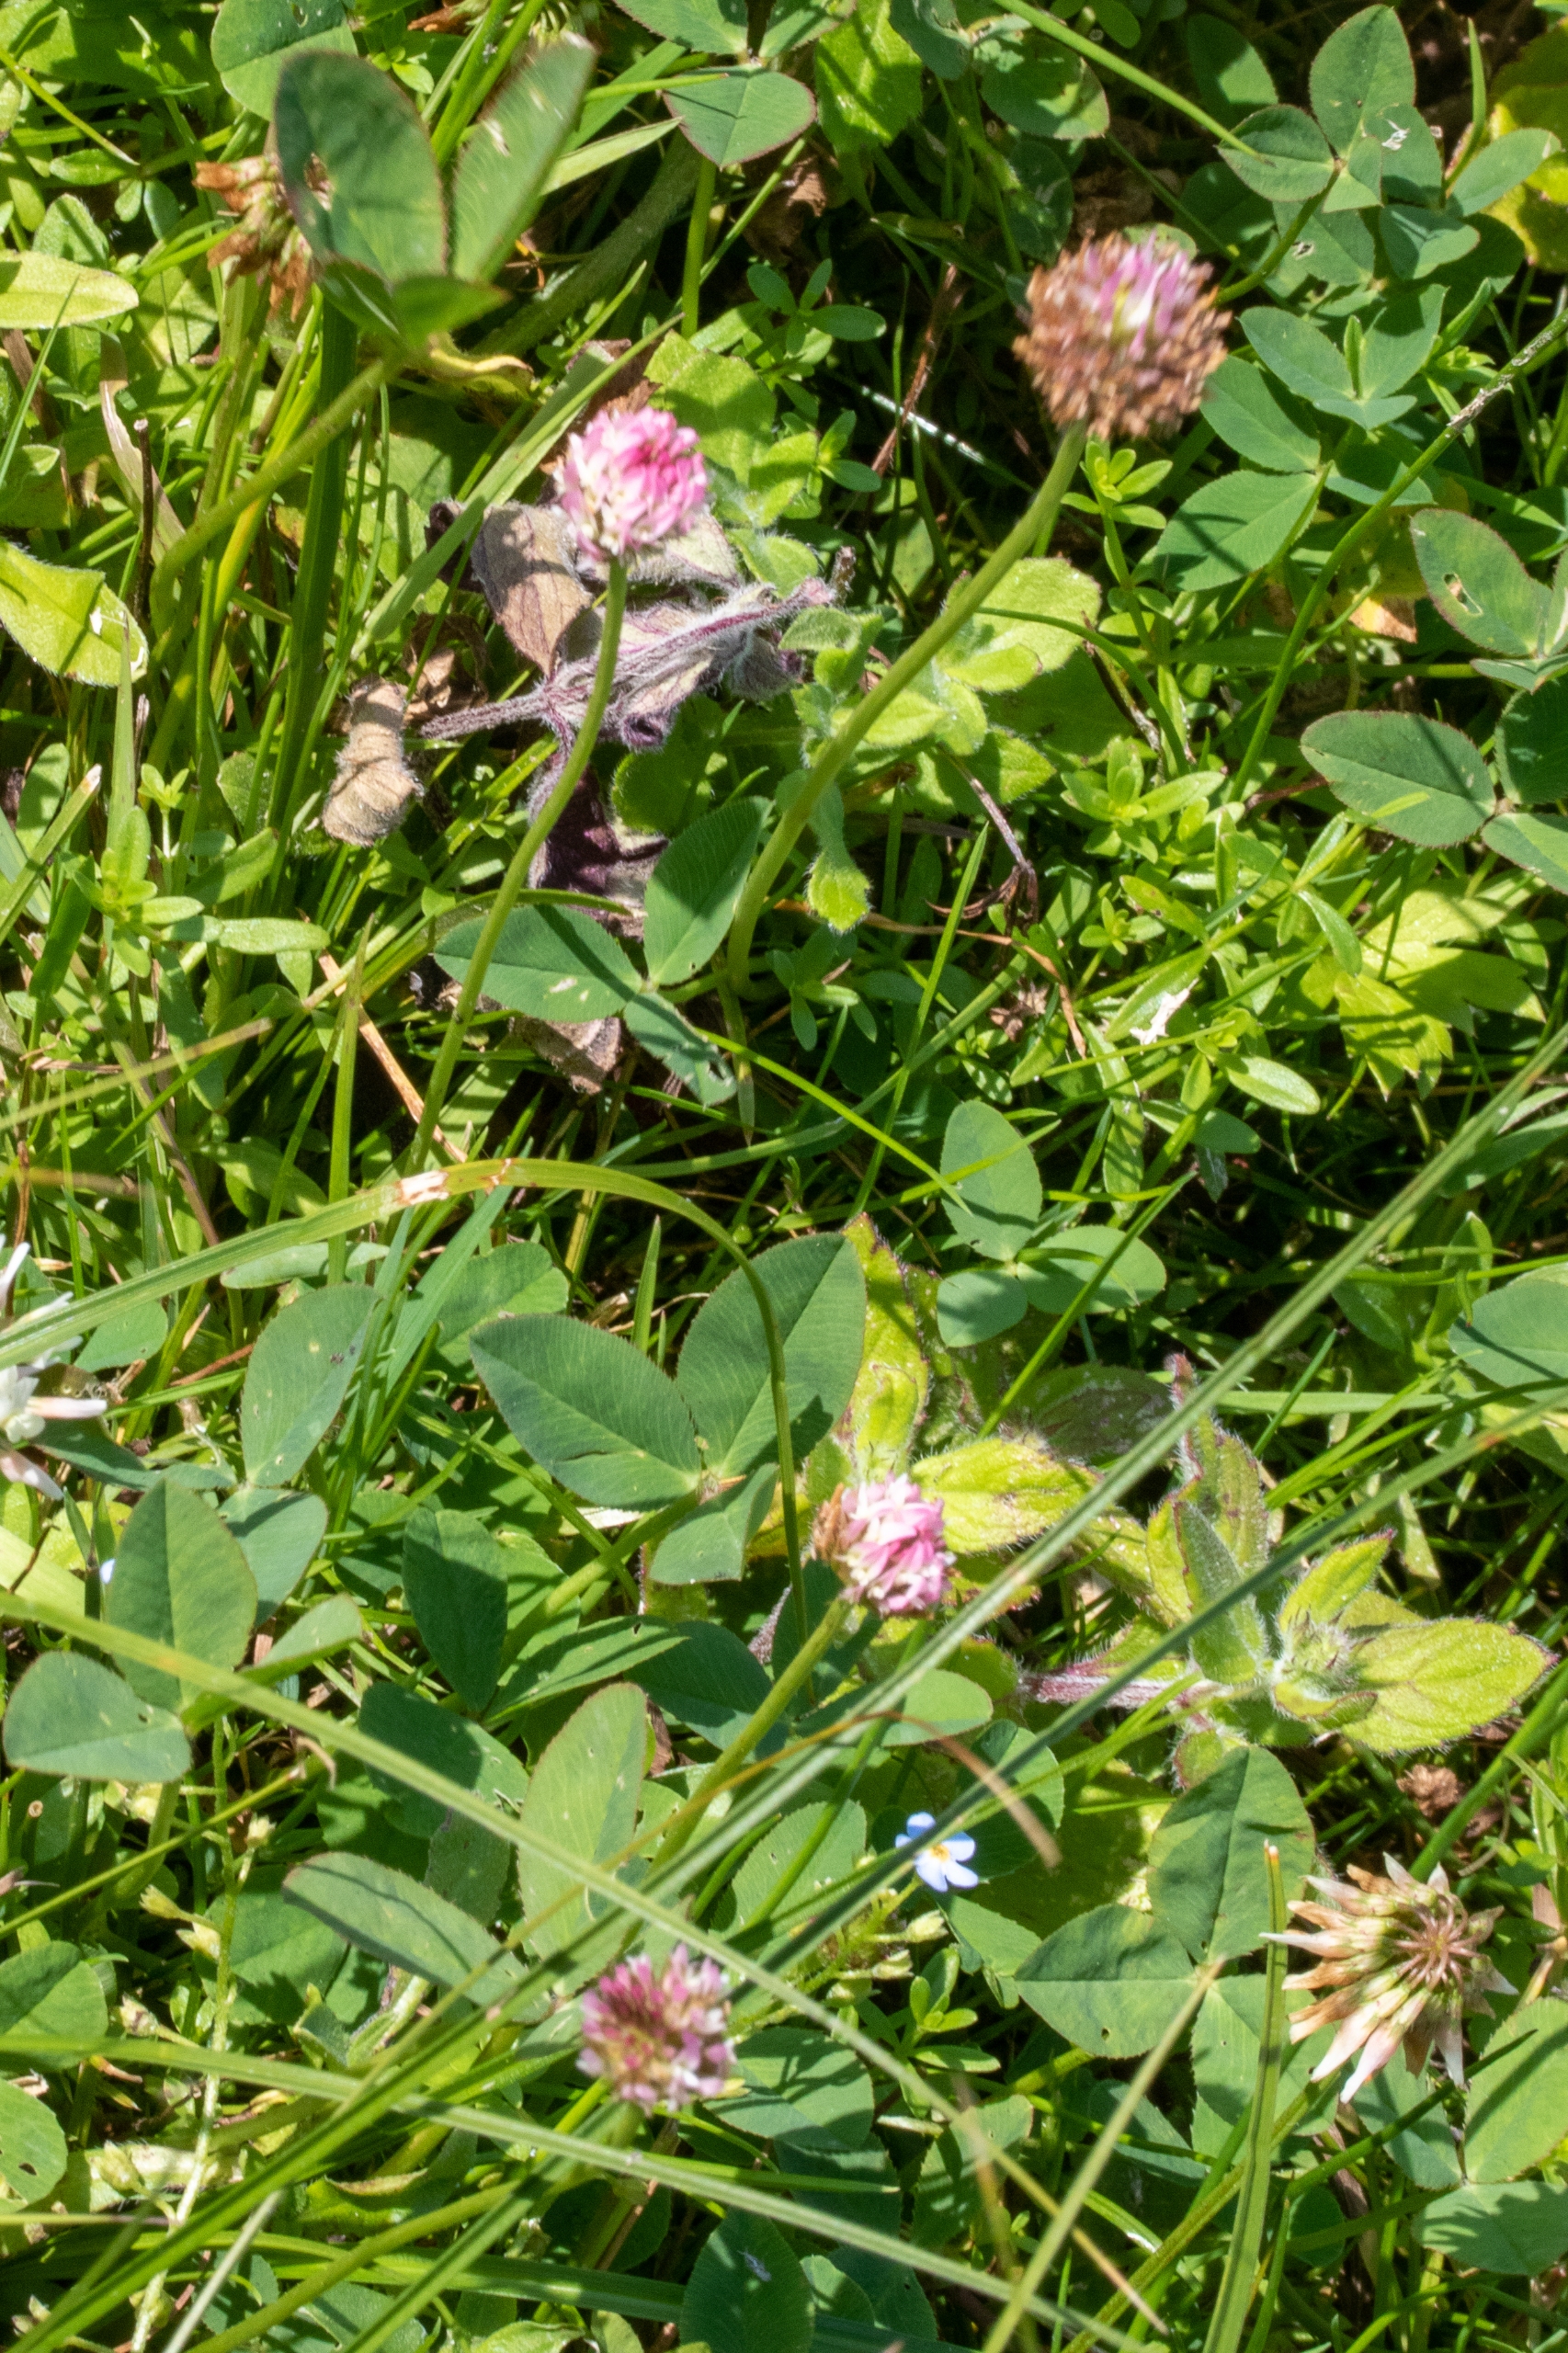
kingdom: Plantae
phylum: Tracheophyta
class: Magnoliopsida
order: Fabales
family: Fabaceae
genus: Trifolium
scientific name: Trifolium fragiferum
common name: Jordbær-kløver
